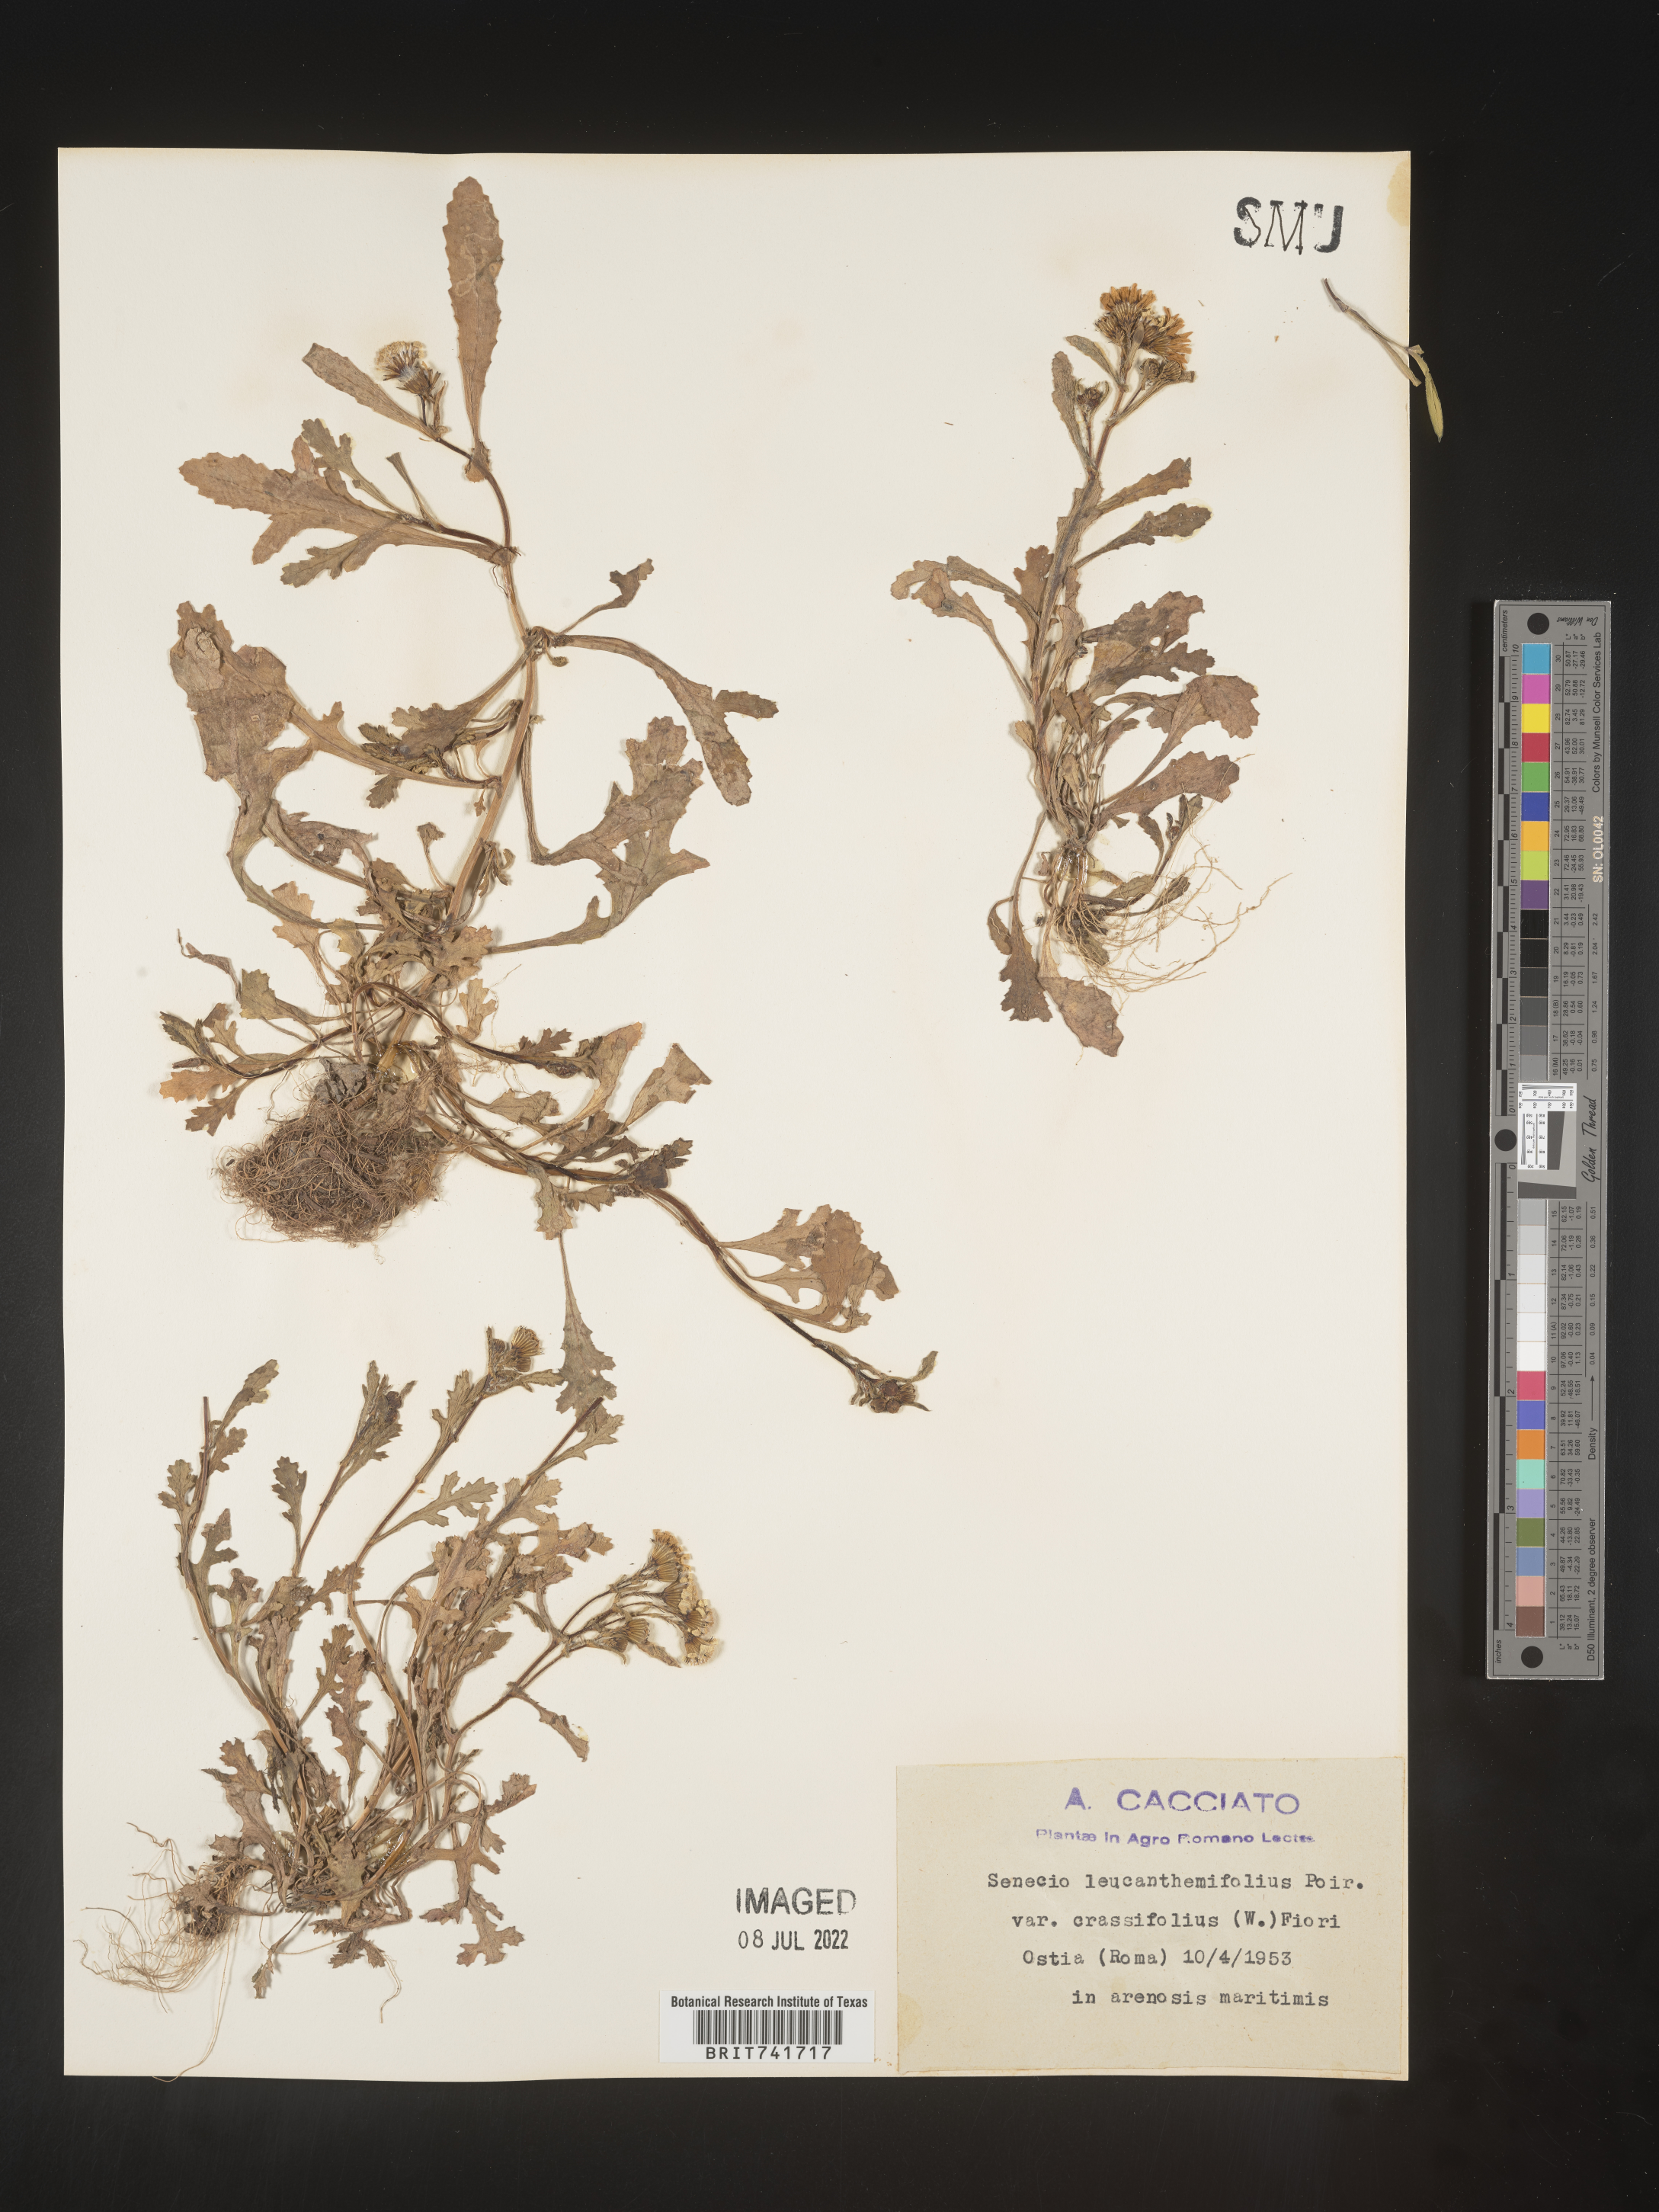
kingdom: Plantae
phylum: Tracheophyta
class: Magnoliopsida
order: Asterales
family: Asteraceae
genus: Senecio
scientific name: Senecio
